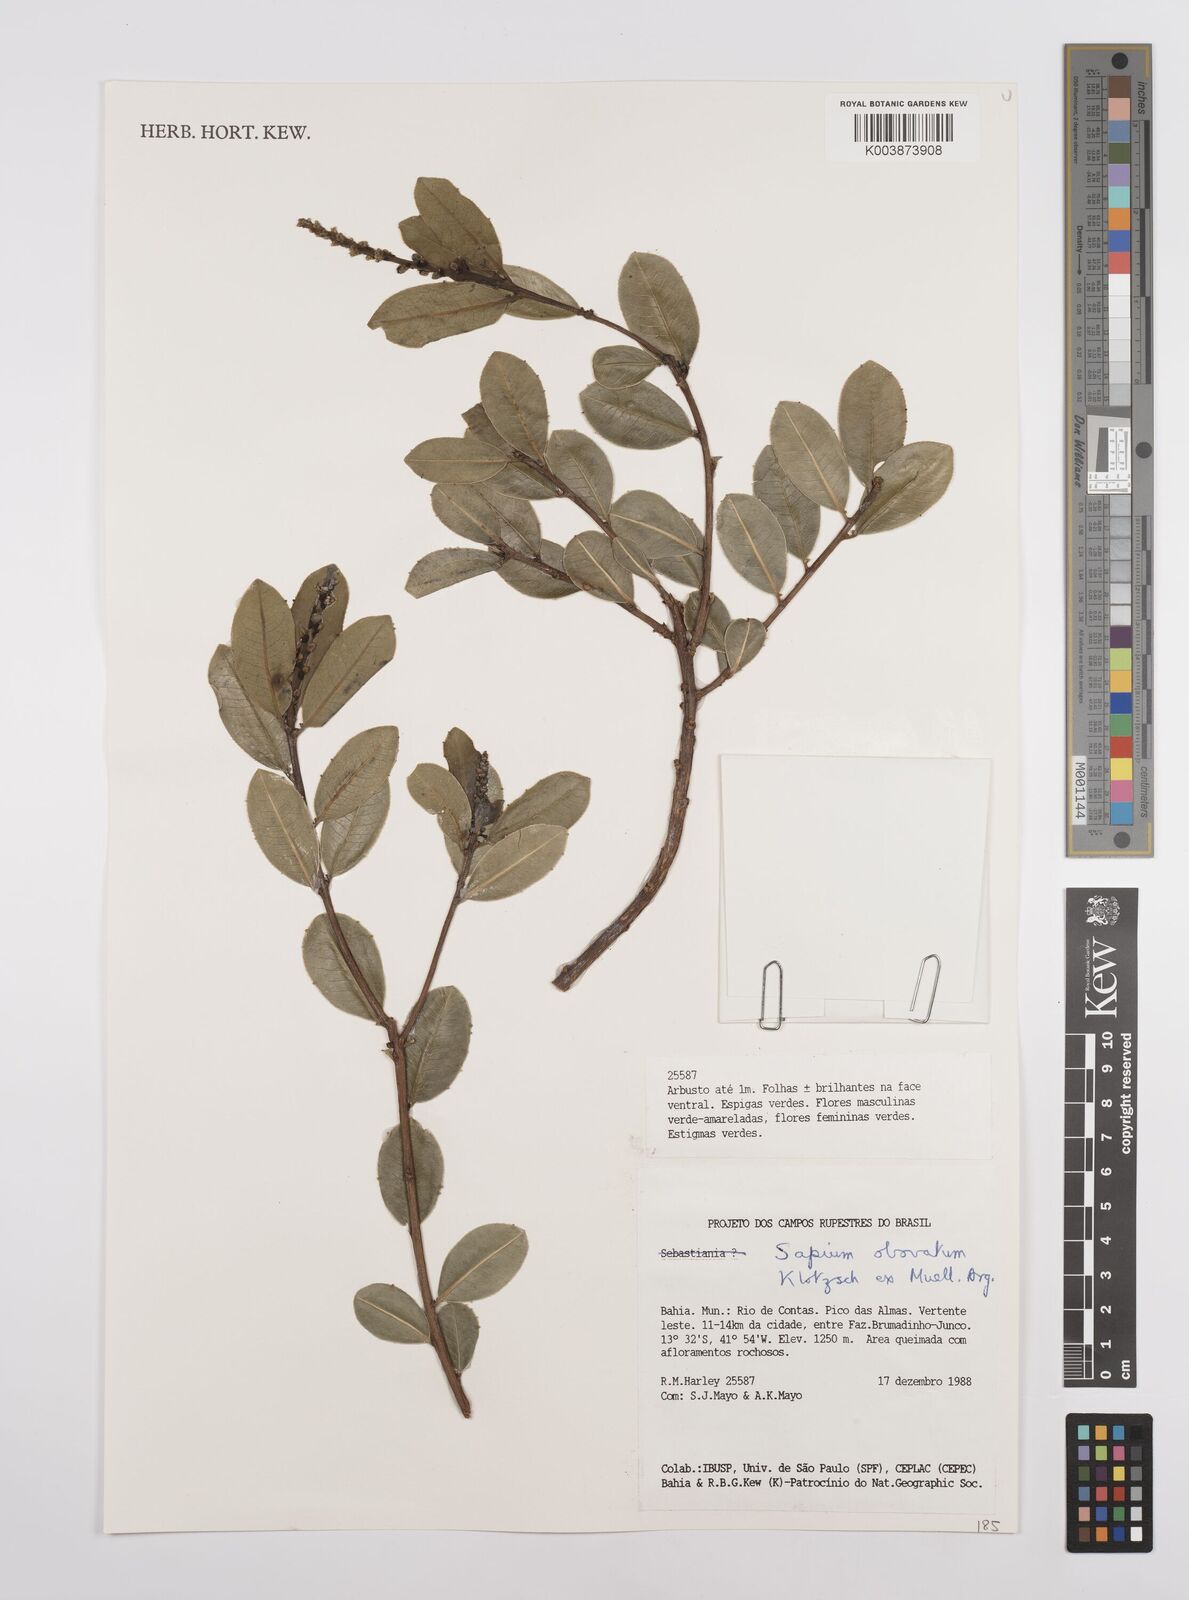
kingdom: Plantae
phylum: Tracheophyta
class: Magnoliopsida
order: Malpighiales
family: Euphorbiaceae
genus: Sapium
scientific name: Sapium obovatum
